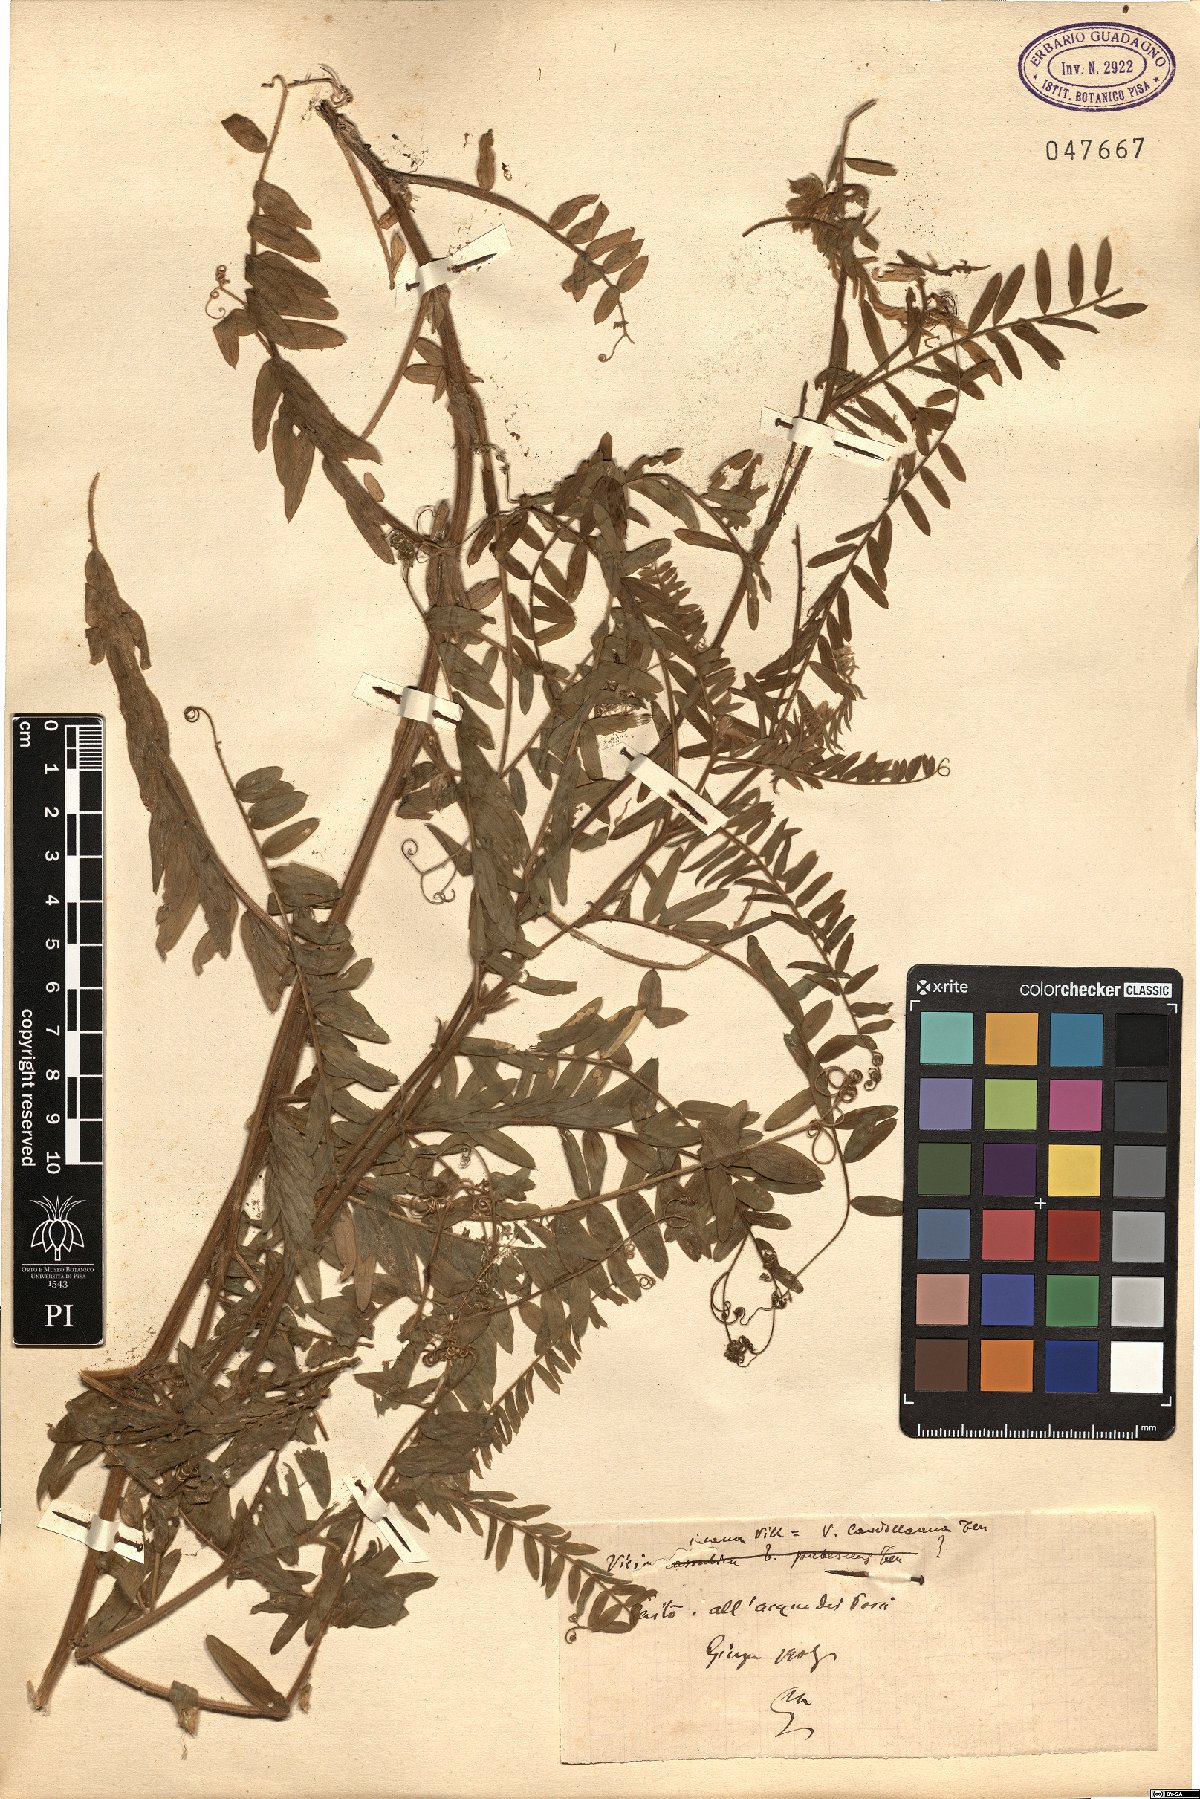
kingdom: Plantae
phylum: Tracheophyta
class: Magnoliopsida
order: Fabales
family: Fabaceae
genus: Vicia
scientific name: Vicia incana
